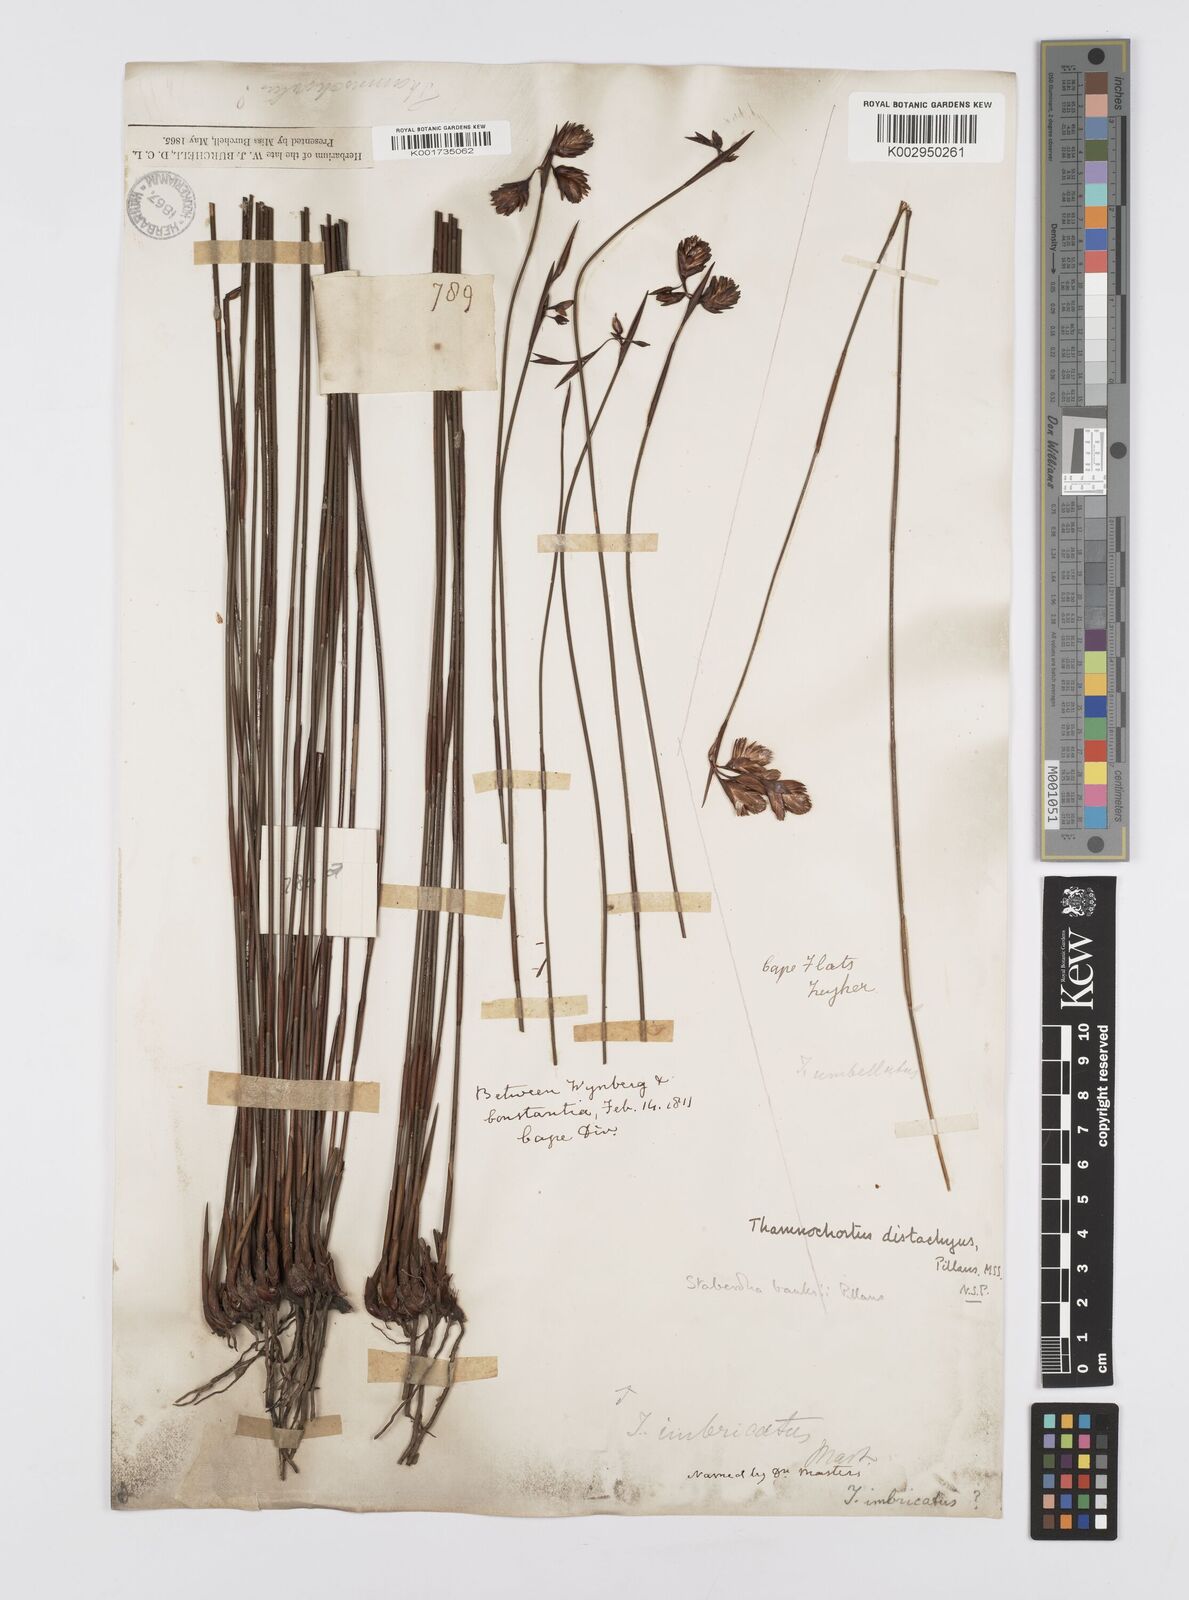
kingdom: Plantae
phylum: Tracheophyta
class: Liliopsida
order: Poales
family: Restionaceae
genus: Staberoha
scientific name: Staberoha banksii
